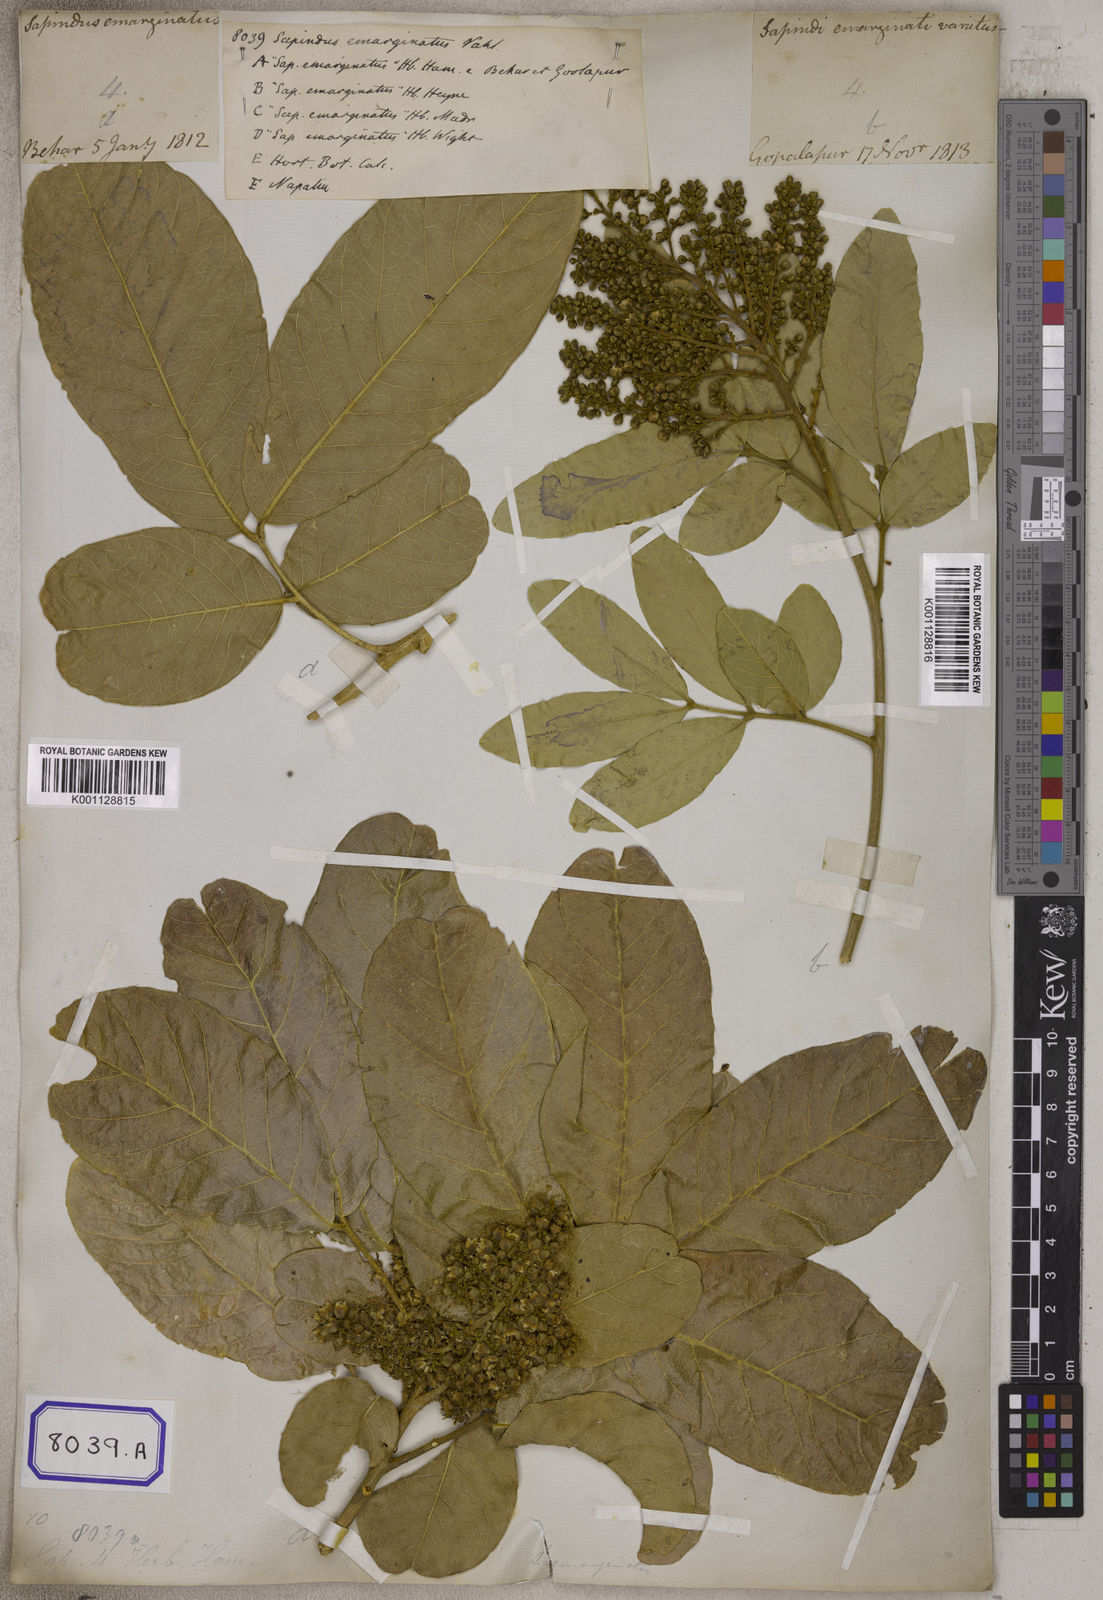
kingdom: Plantae
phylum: Tracheophyta
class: Magnoliopsida
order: Sapindales
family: Sapindaceae
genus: Sapindus
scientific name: Sapindus emarginatus
